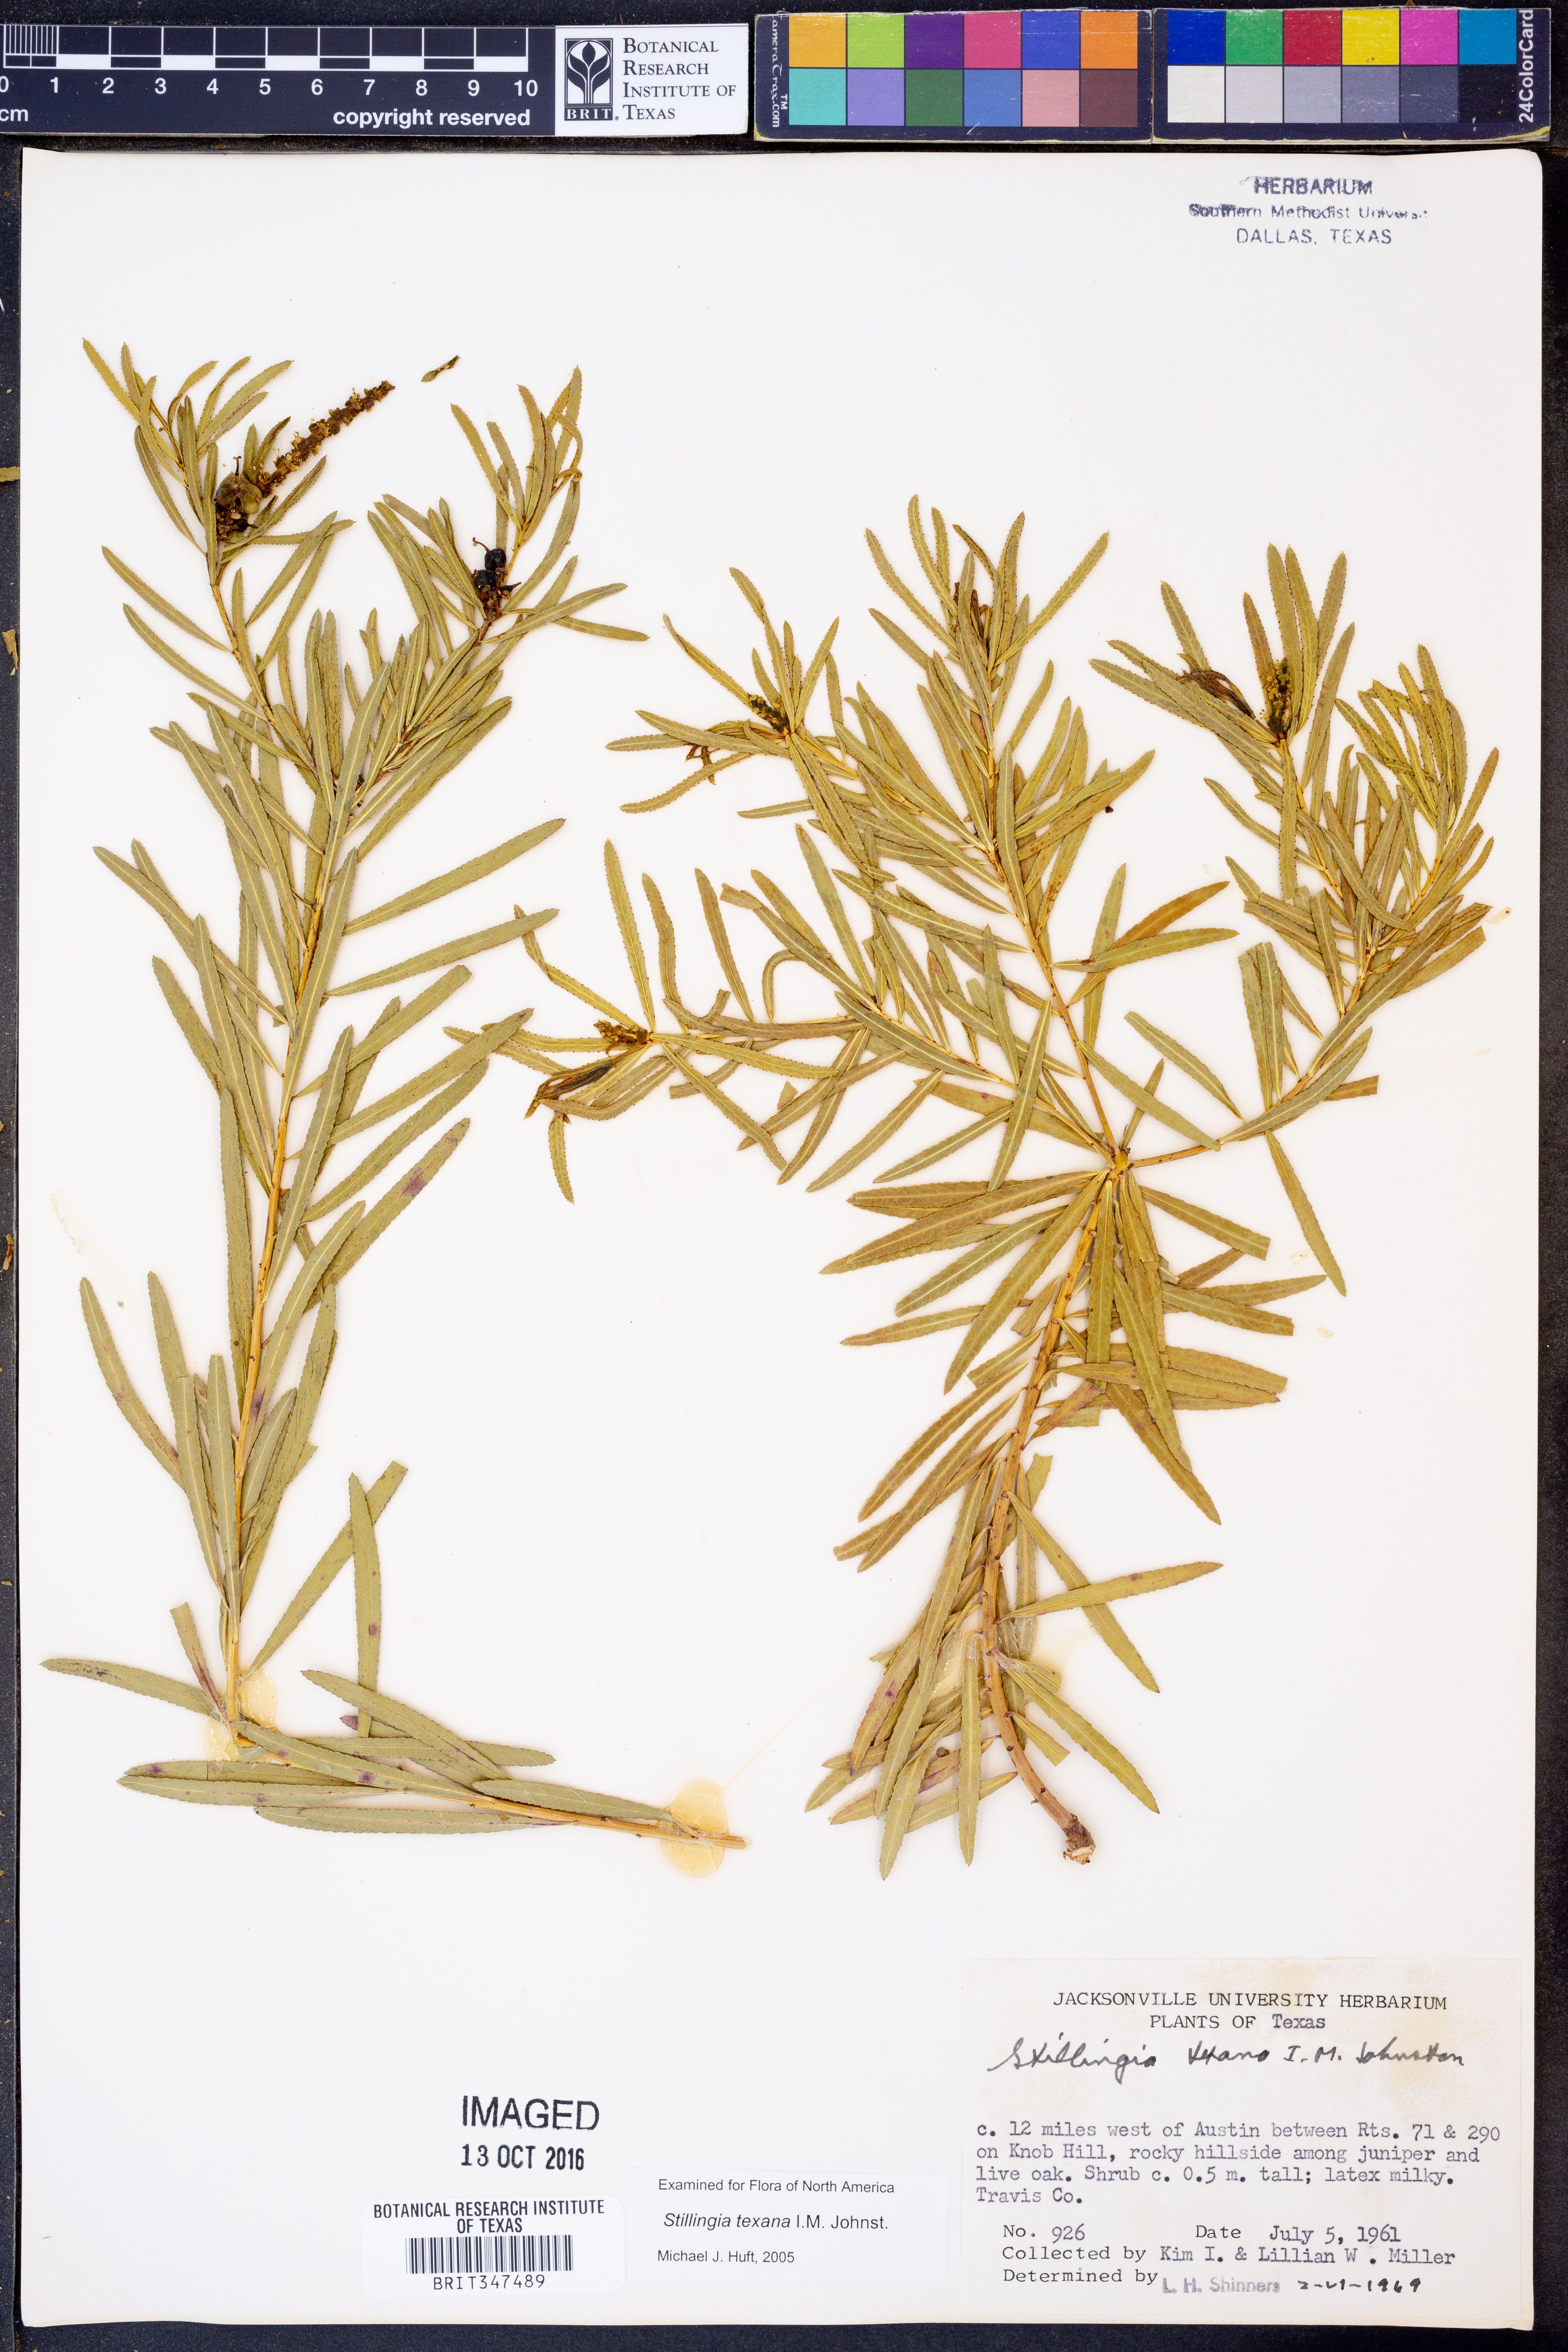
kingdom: Plantae
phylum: Tracheophyta
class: Magnoliopsida
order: Malpighiales
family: Euphorbiaceae
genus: Stillingia
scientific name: Stillingia texana
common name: Texas stillingia
